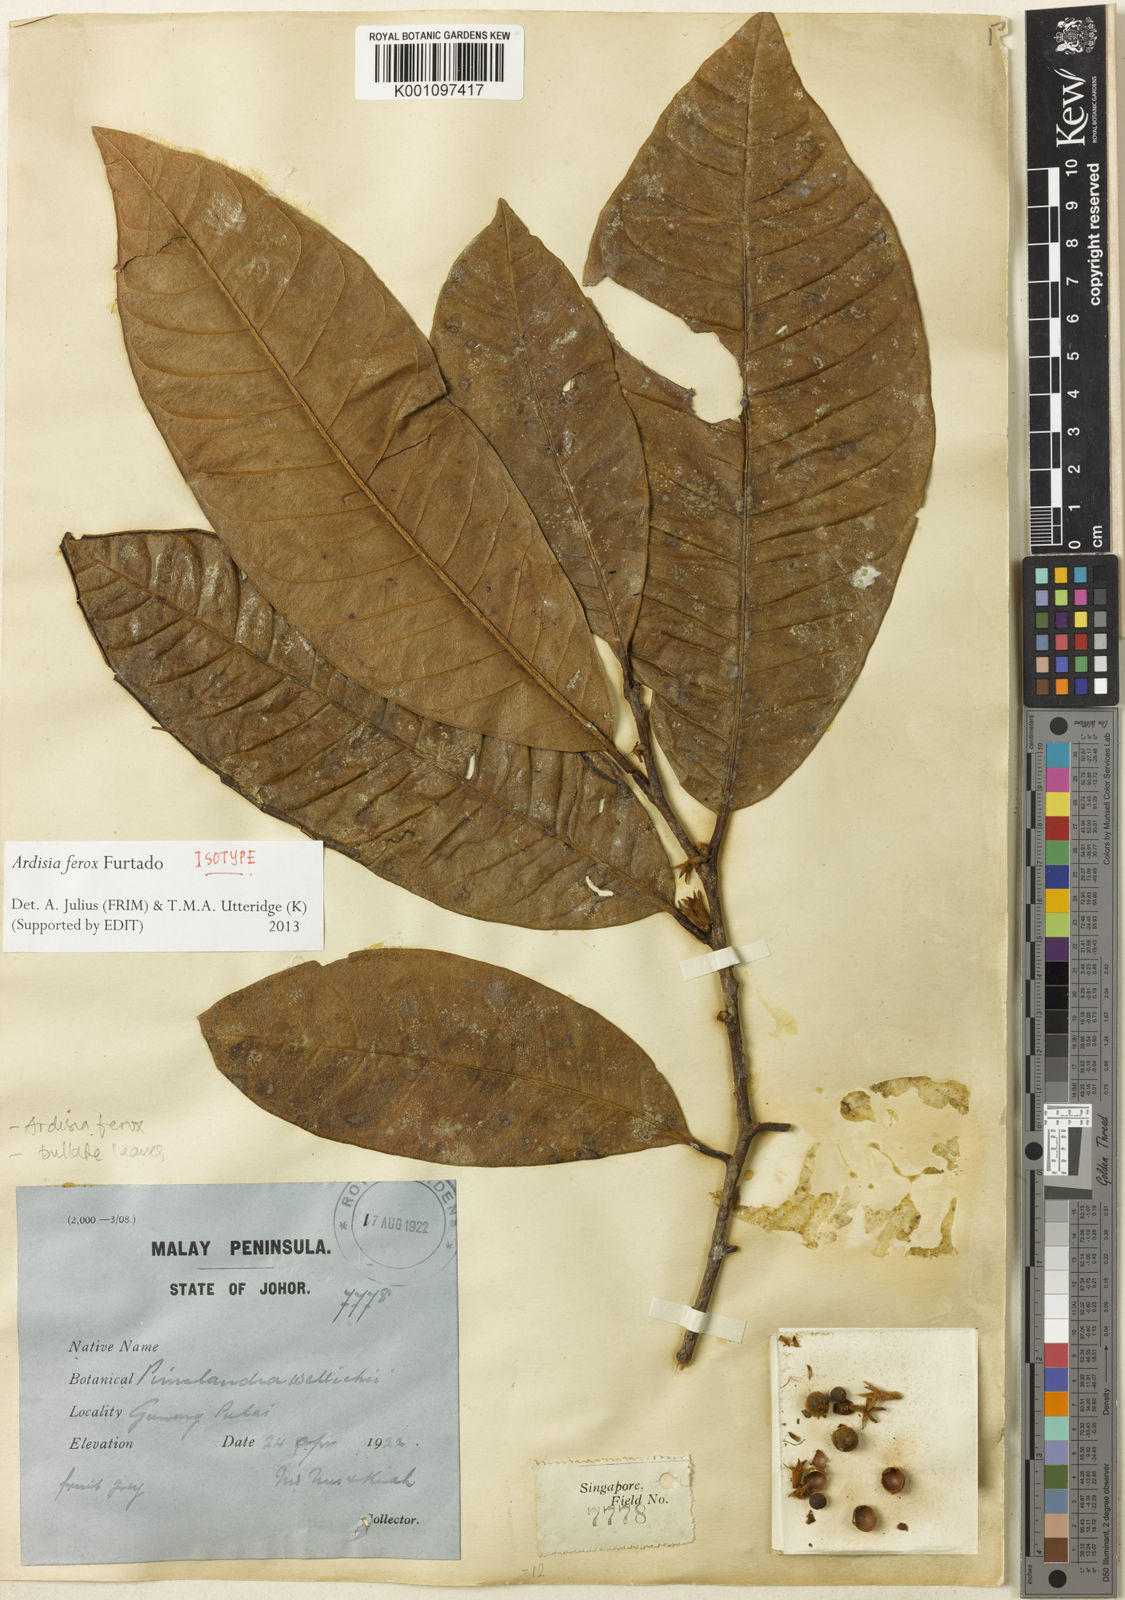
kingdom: Plantae
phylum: Tracheophyta
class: Magnoliopsida
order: Ericales
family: Primulaceae
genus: Ardisia
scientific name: Ardisia ferox
